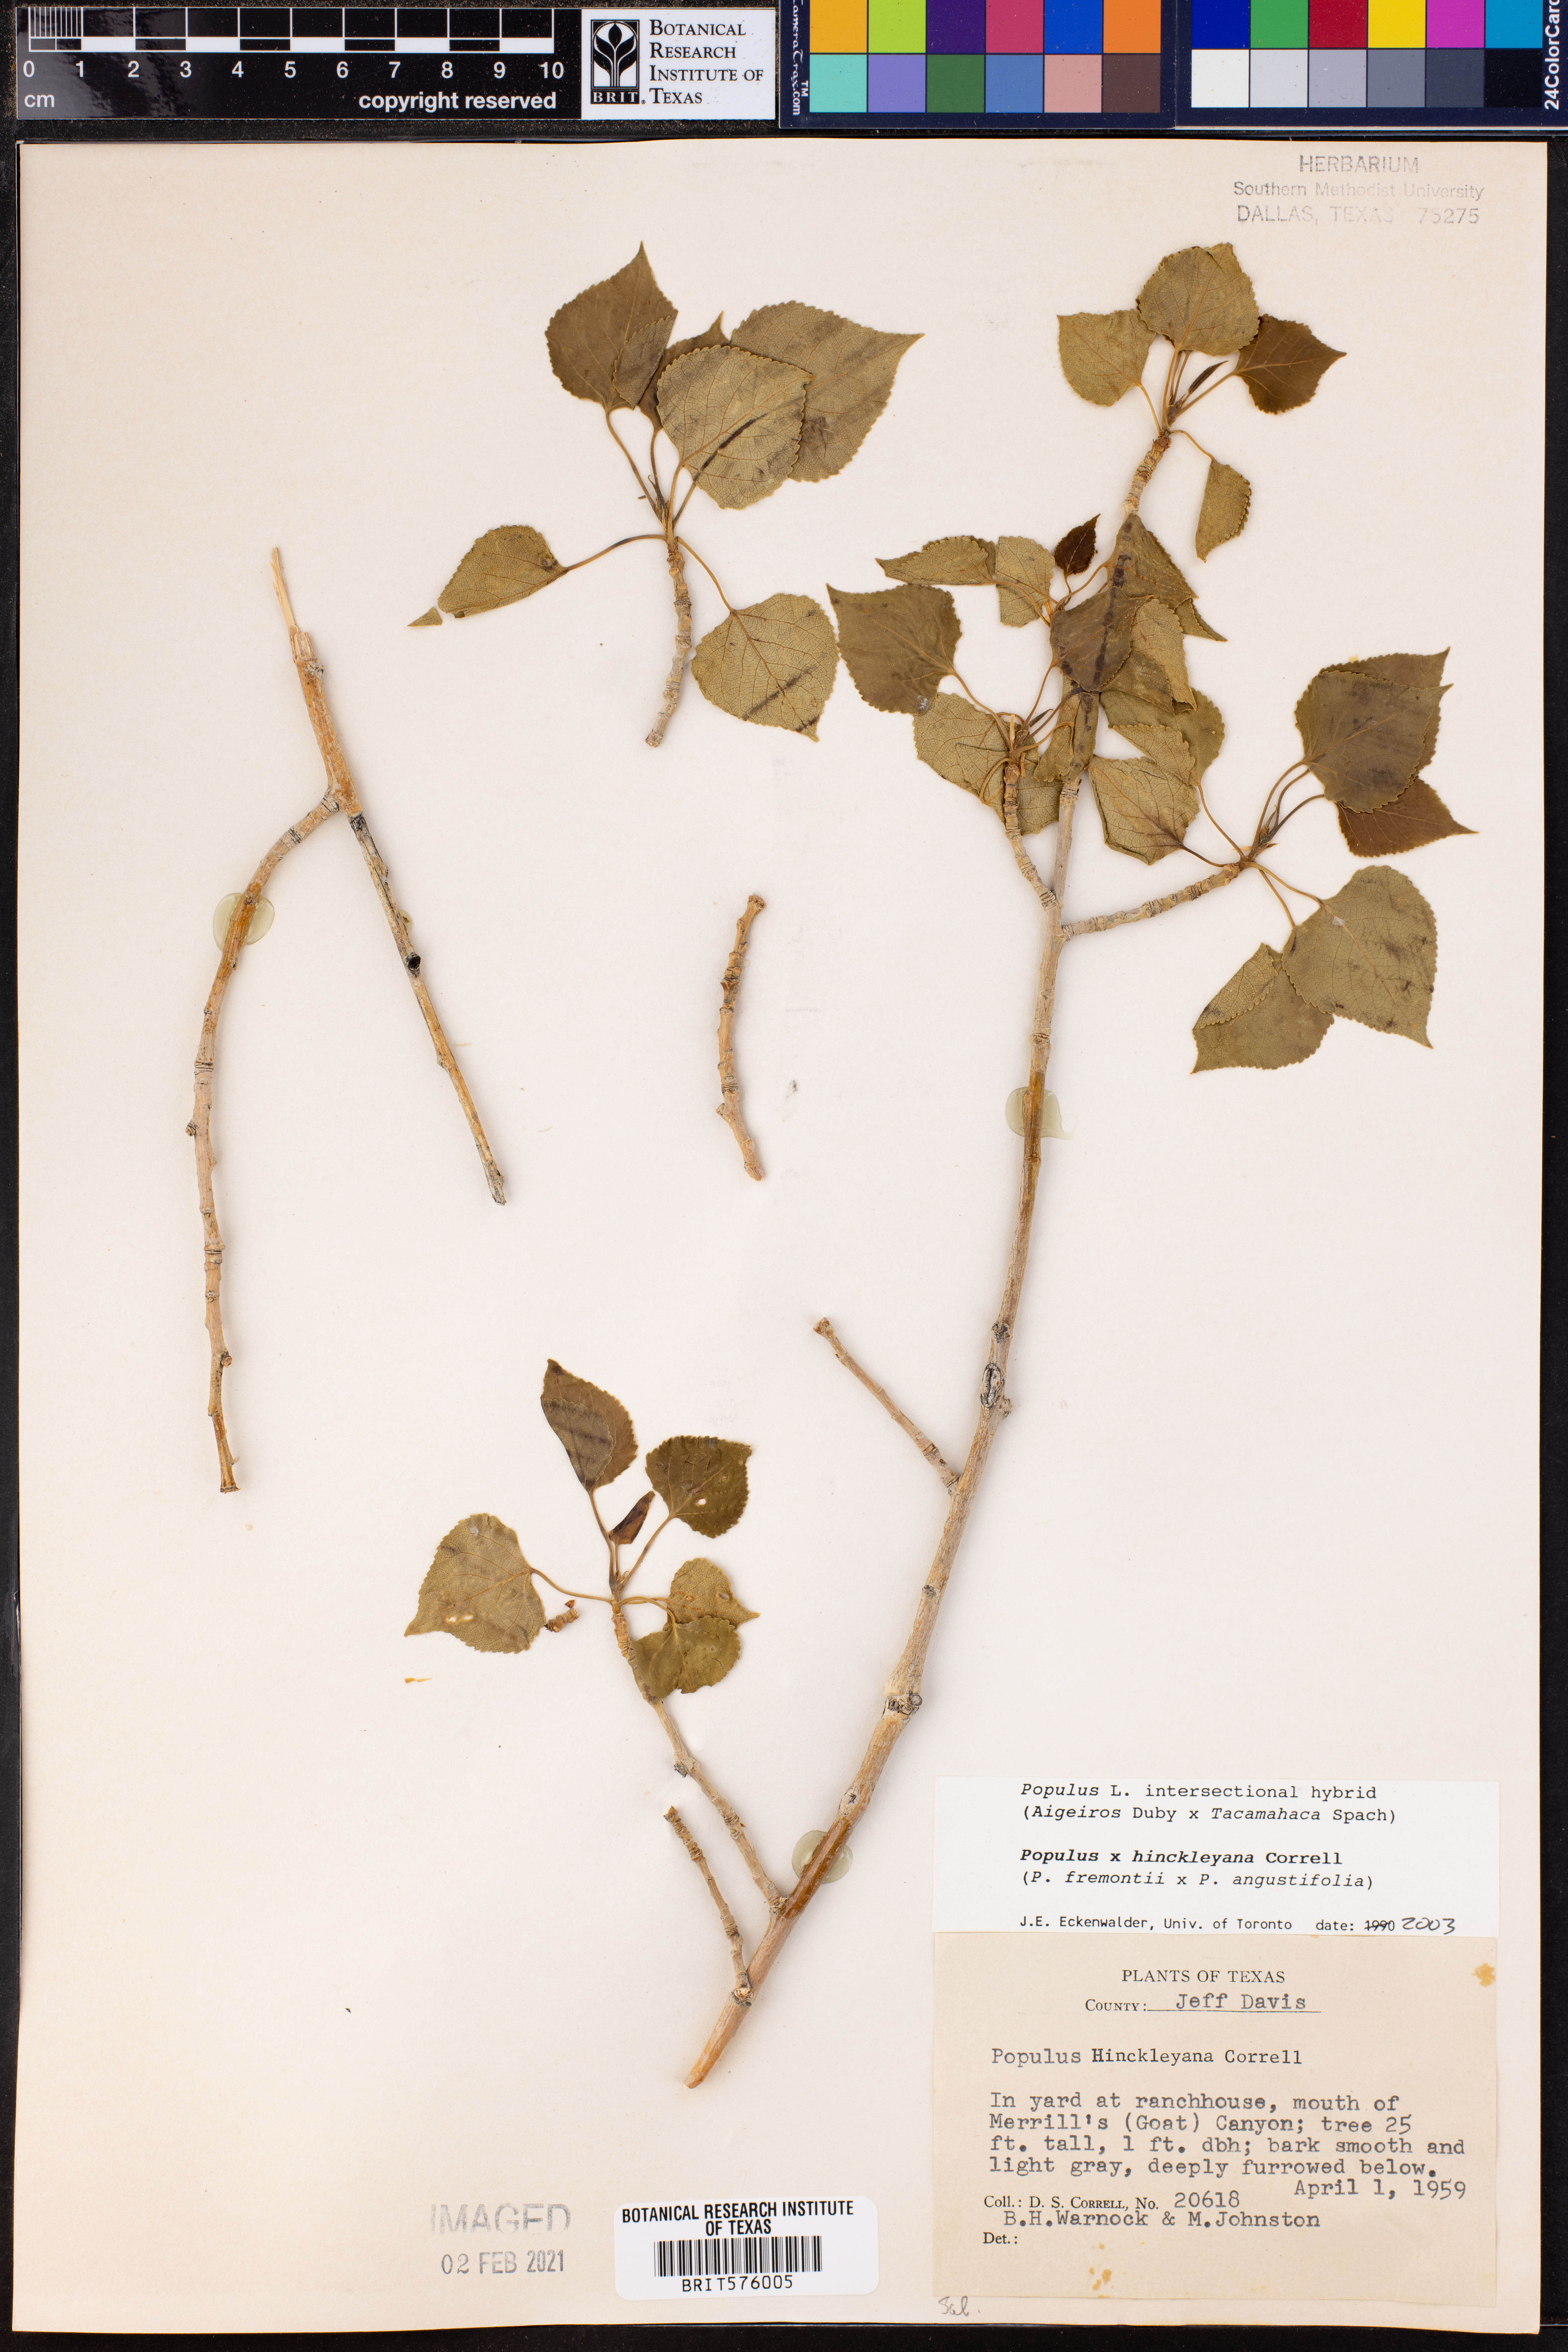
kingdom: Plantae
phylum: Tracheophyta
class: Magnoliopsida
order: Malpighiales
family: Salicaceae
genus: Populus
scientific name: Populus hinckleyana
